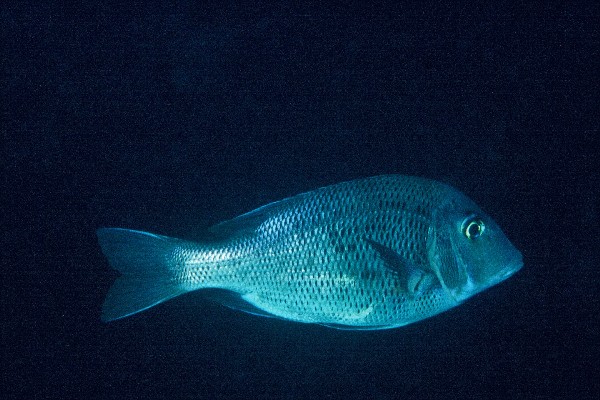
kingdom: Animalia
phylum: Chordata
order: Perciformes
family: Lethrinidae
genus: Gymnocranius
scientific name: Gymnocranius euanus
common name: Japanese large-eye bream
